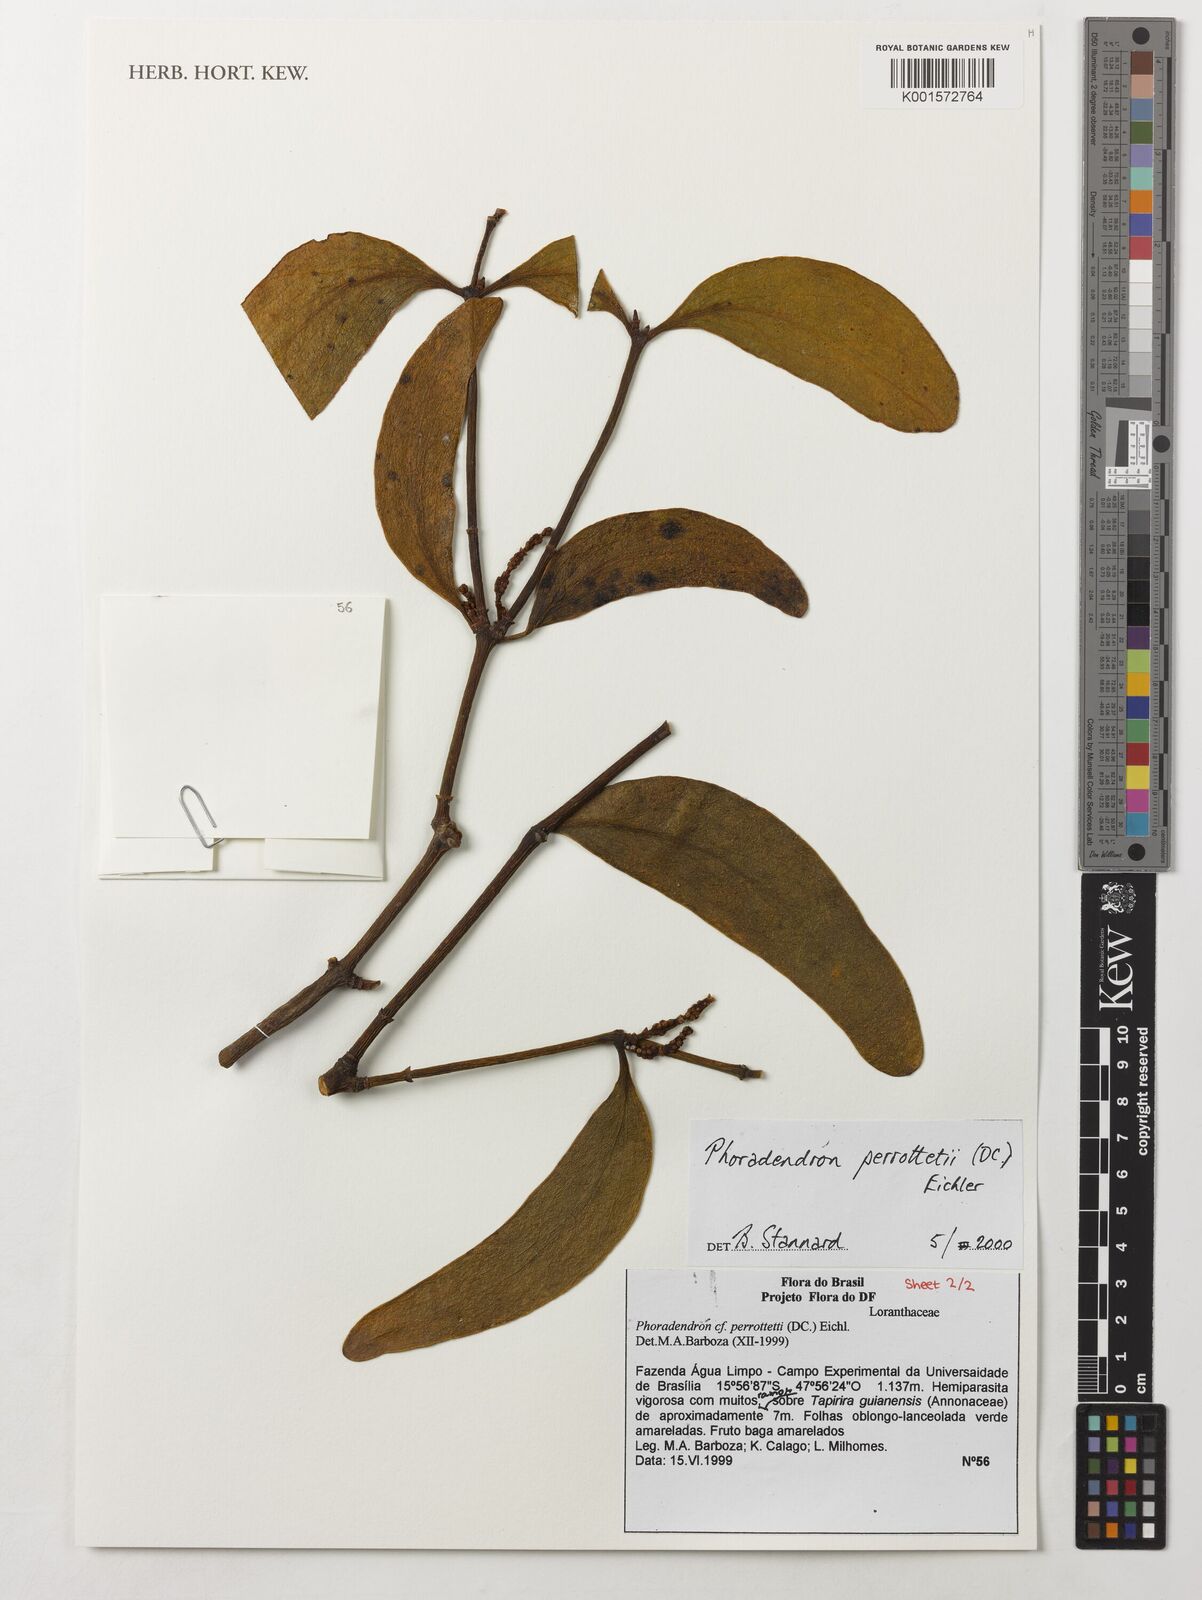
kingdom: Plantae
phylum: Tracheophyta
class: Magnoliopsida
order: Santalales
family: Viscaceae
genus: Phoradendron
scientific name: Phoradendron perrottetii
